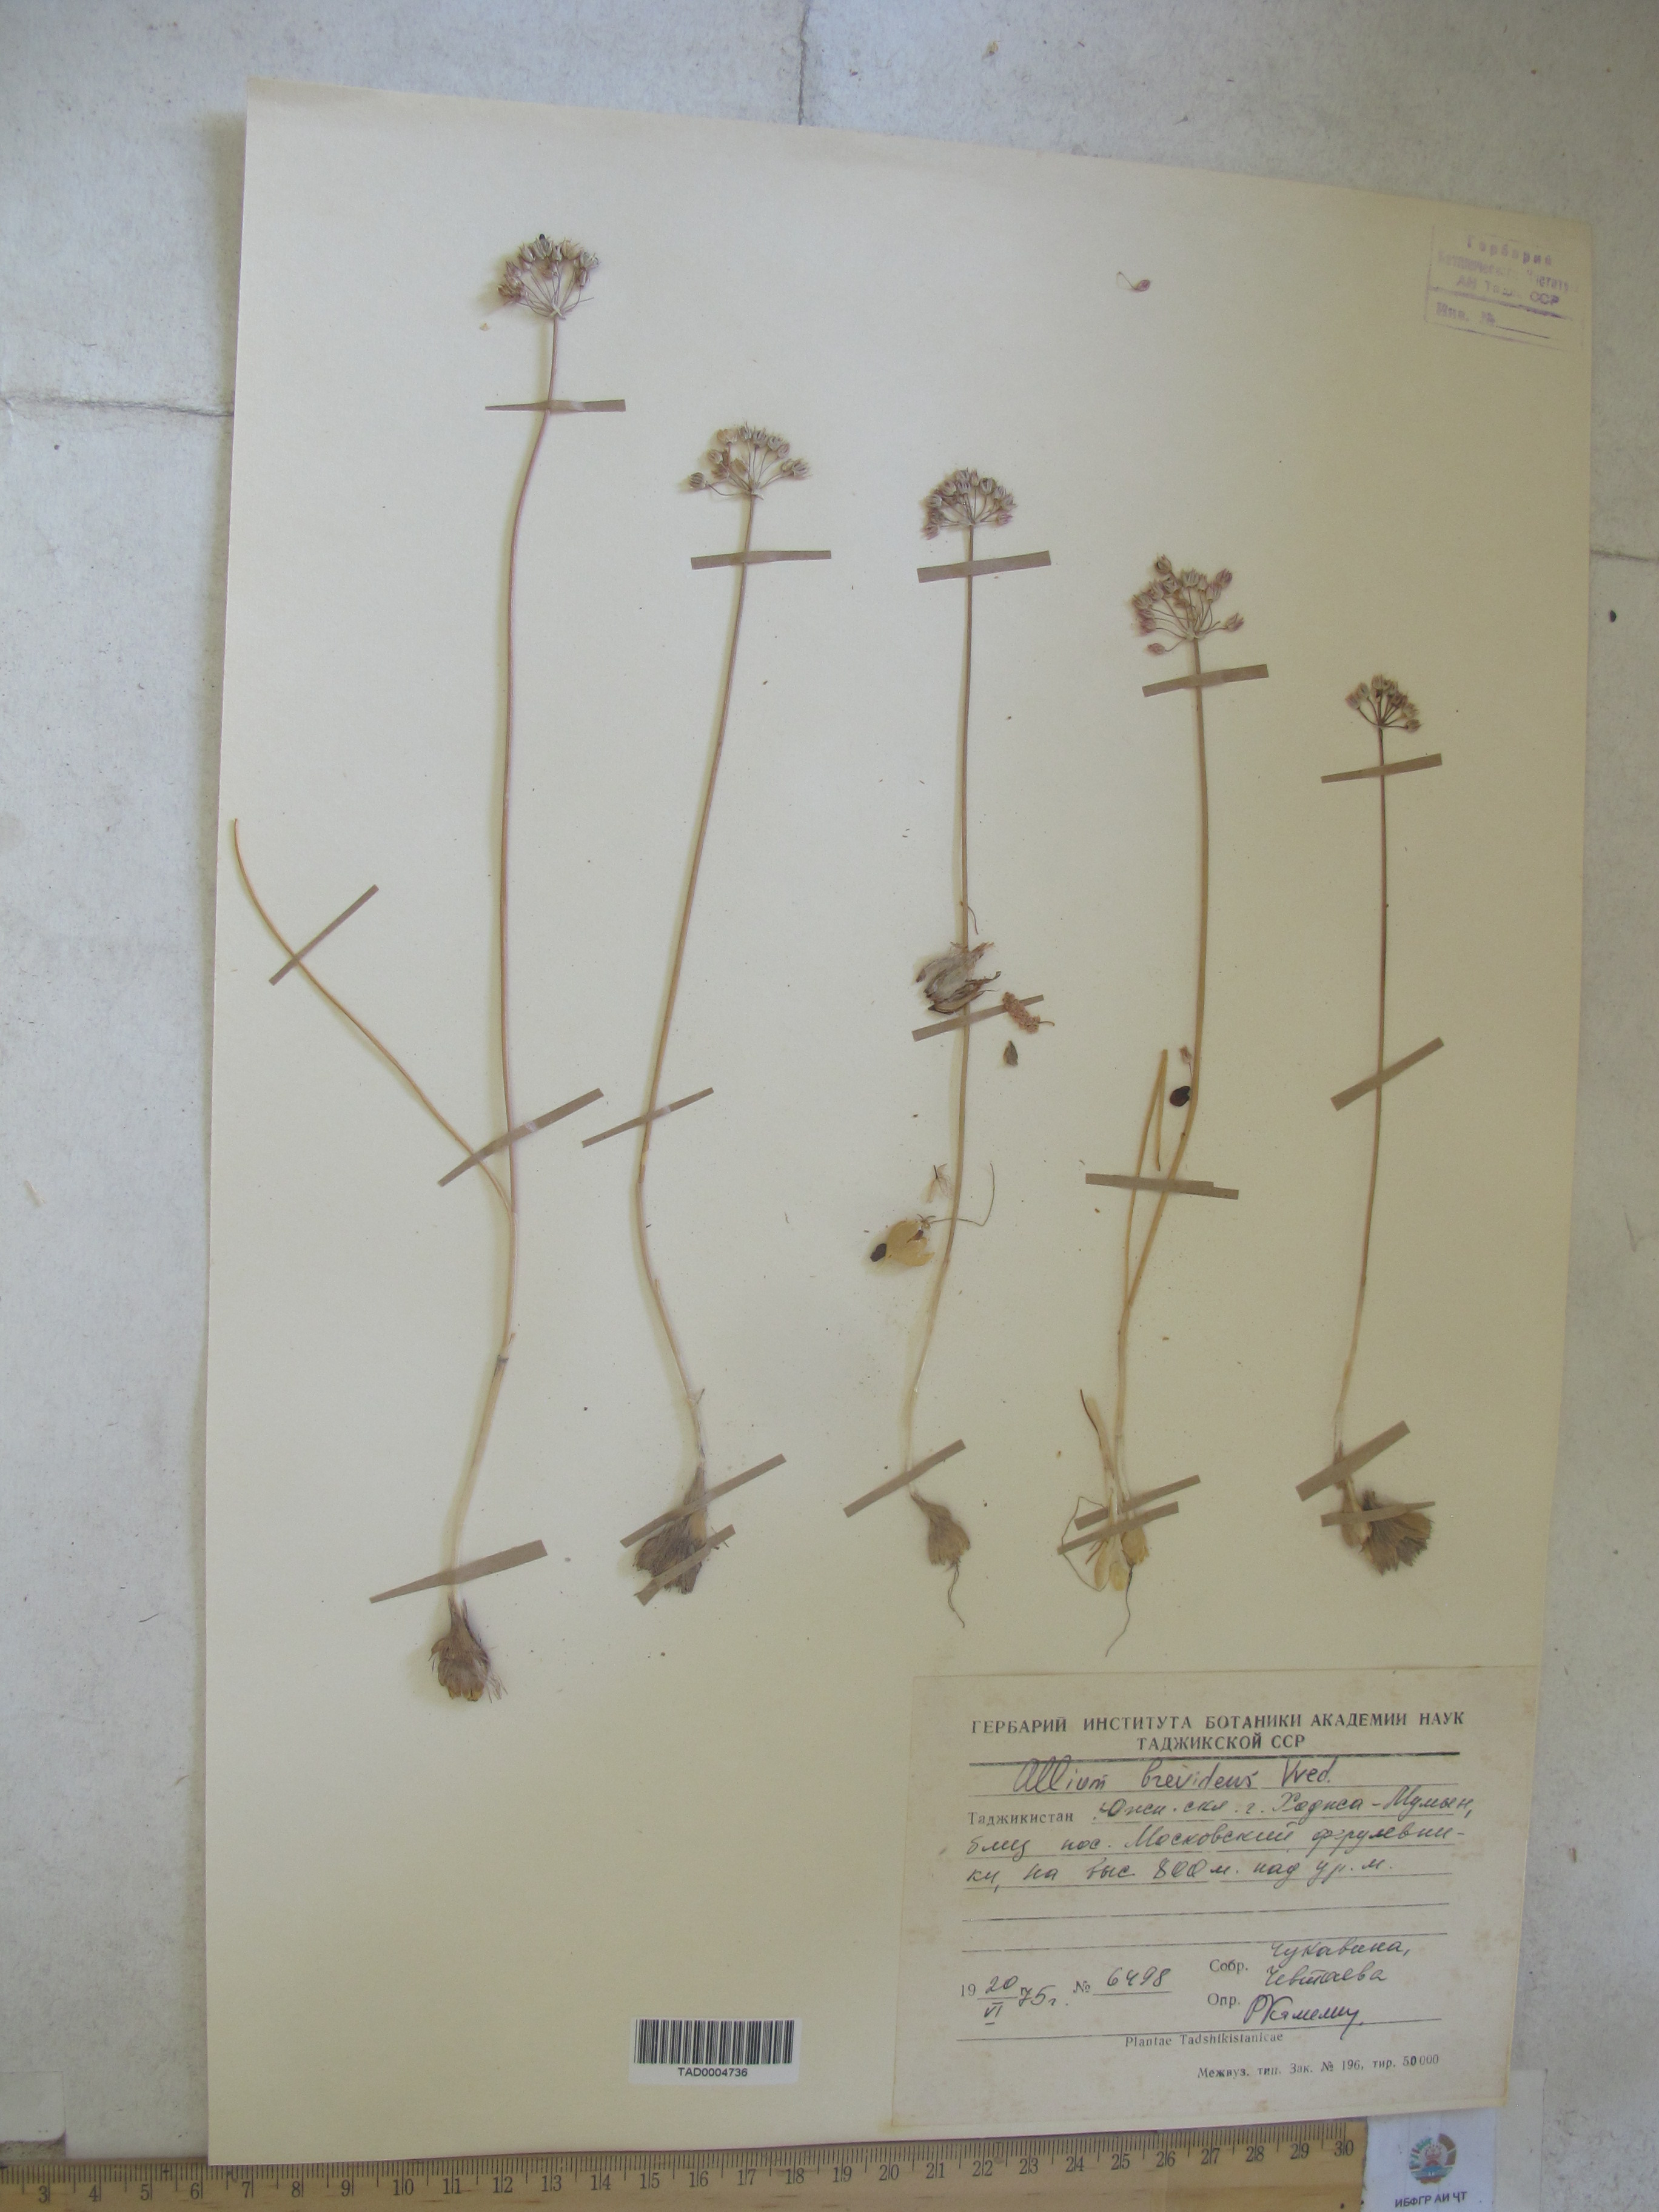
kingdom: Plantae
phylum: Tracheophyta
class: Liliopsida
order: Asparagales
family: Amaryllidaceae
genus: Allium
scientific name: Allium brevidens
